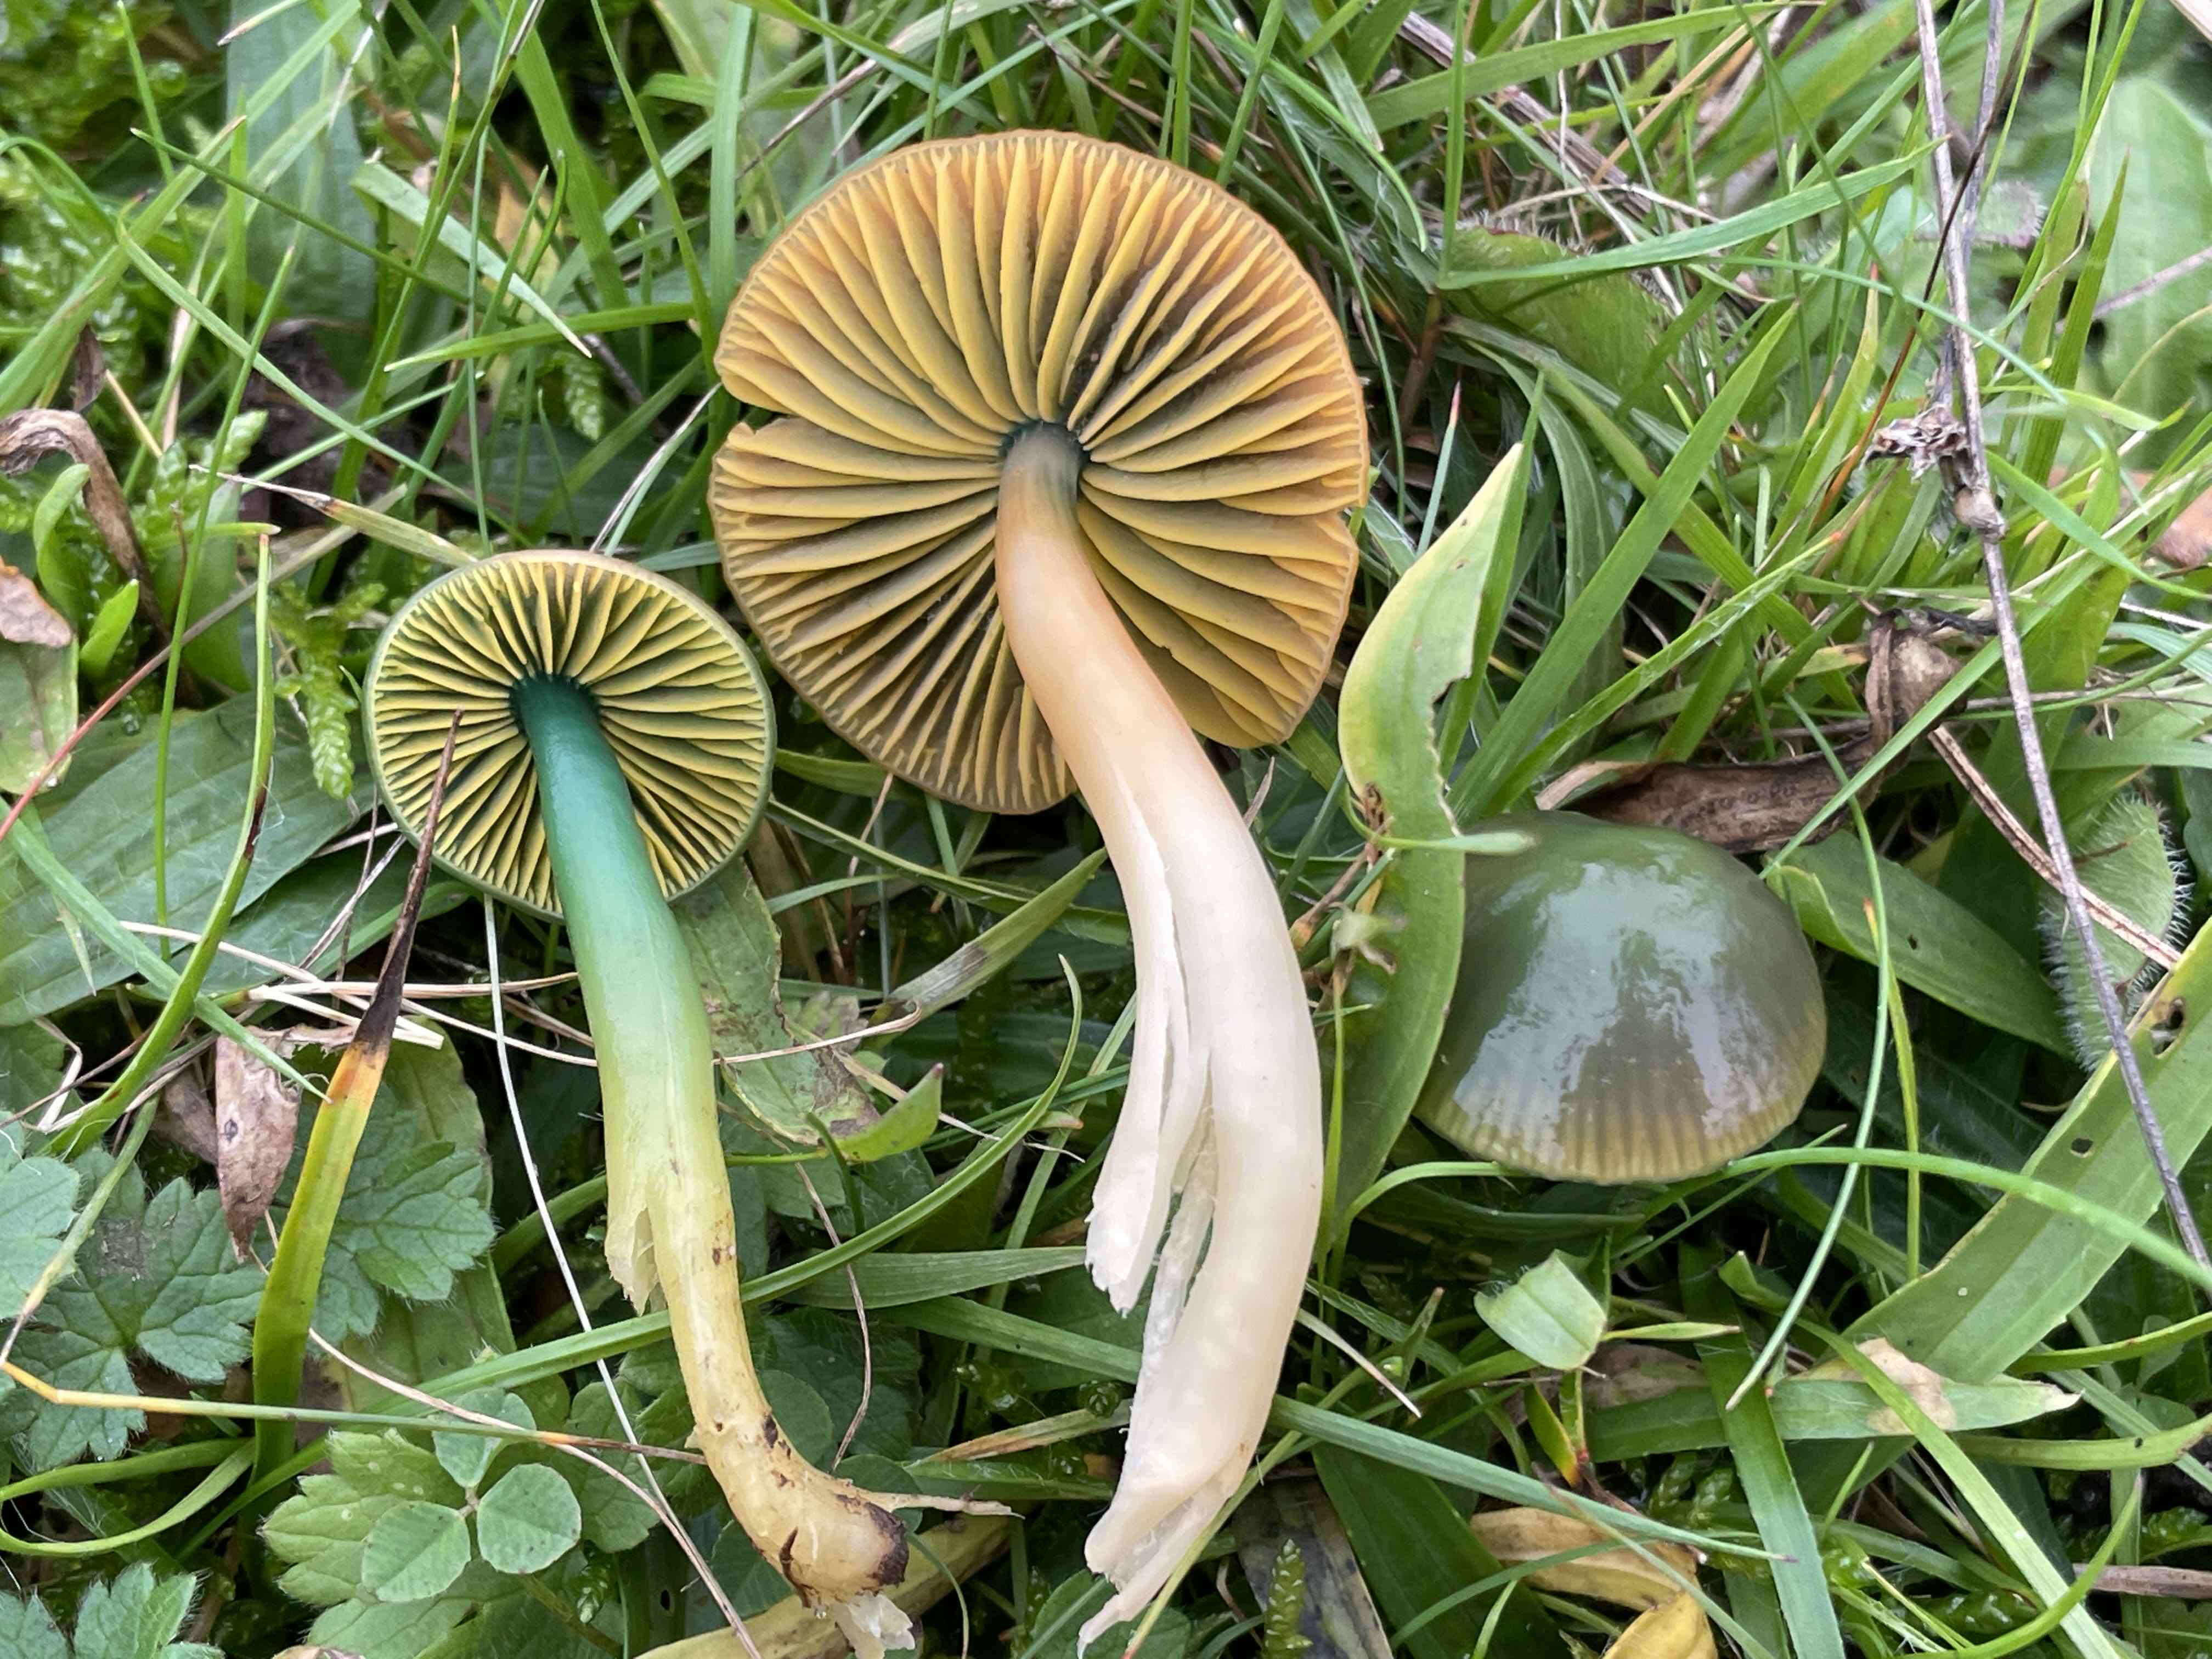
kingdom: Fungi
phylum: Basidiomycota
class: Agaricomycetes
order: Agaricales
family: Hygrophoraceae
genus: Gliophorus
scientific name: Gliophorus psittacinus
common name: papegøje-vokshat
